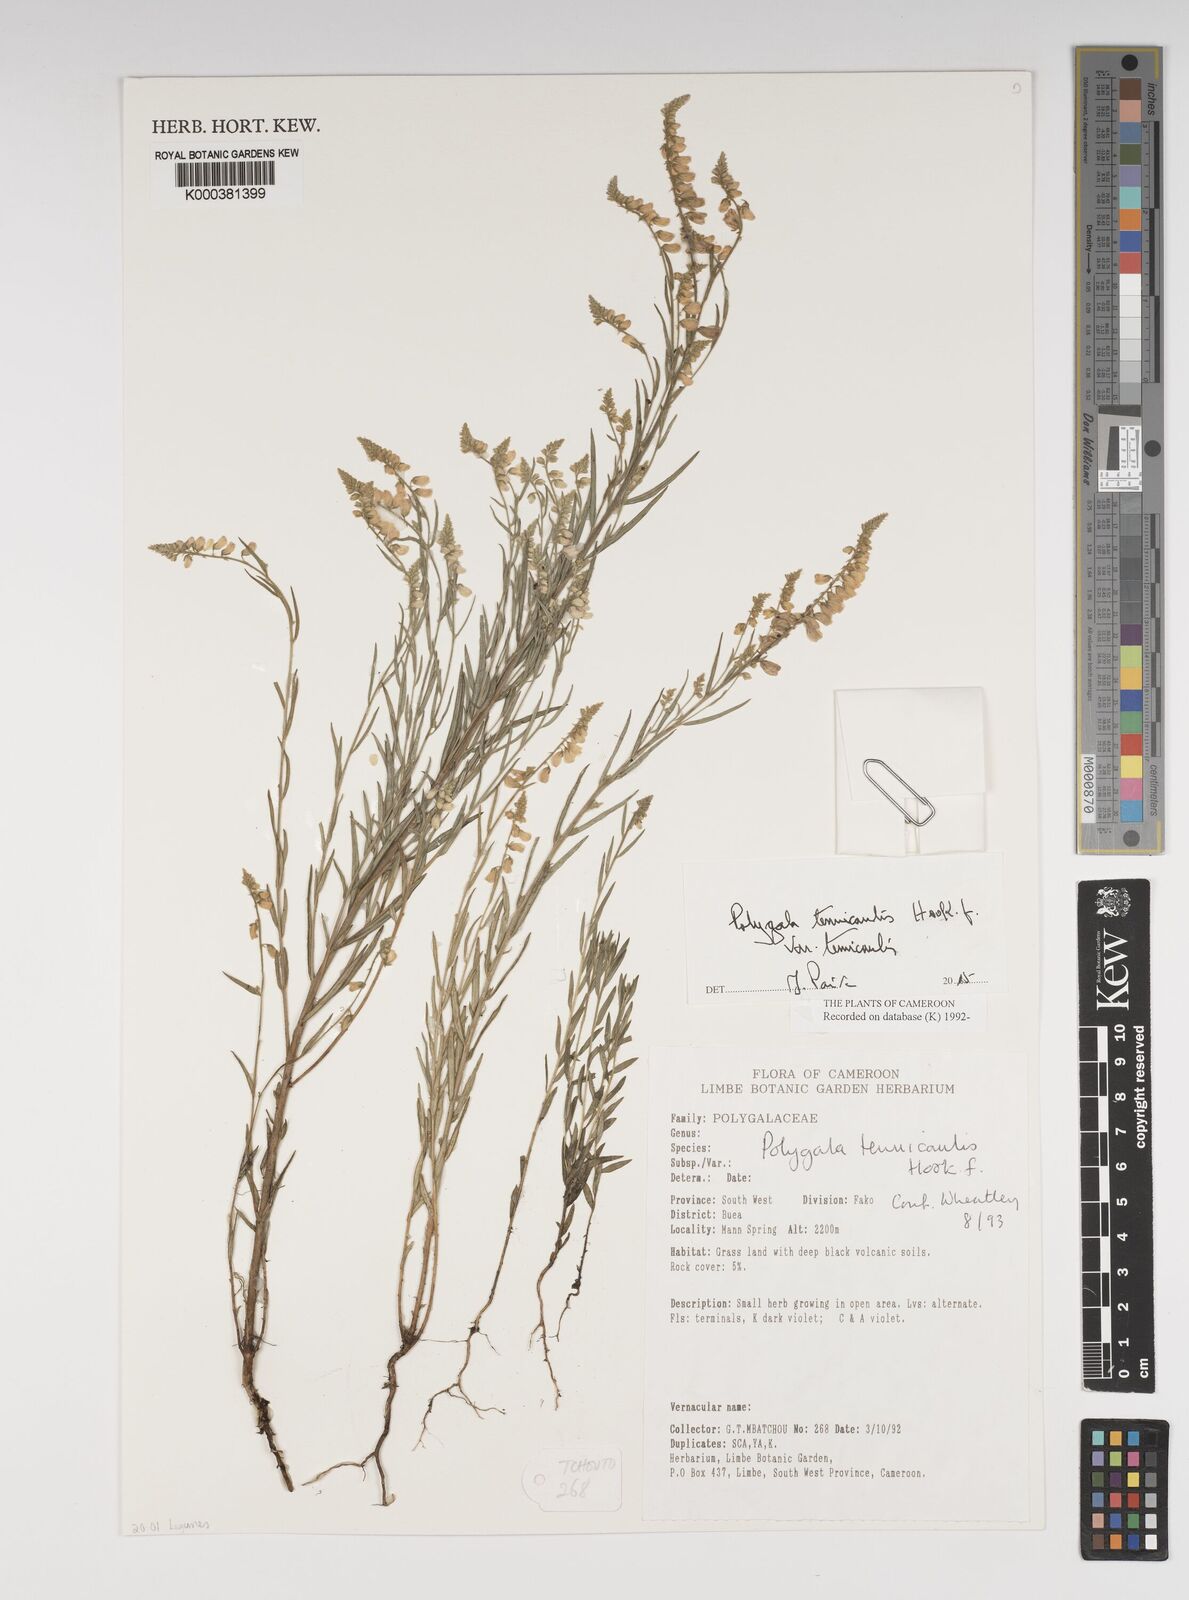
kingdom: Plantae
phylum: Tracheophyta
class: Magnoliopsida
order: Fabales
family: Polygalaceae
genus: Polygala
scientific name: Polygala tenuicaulis
